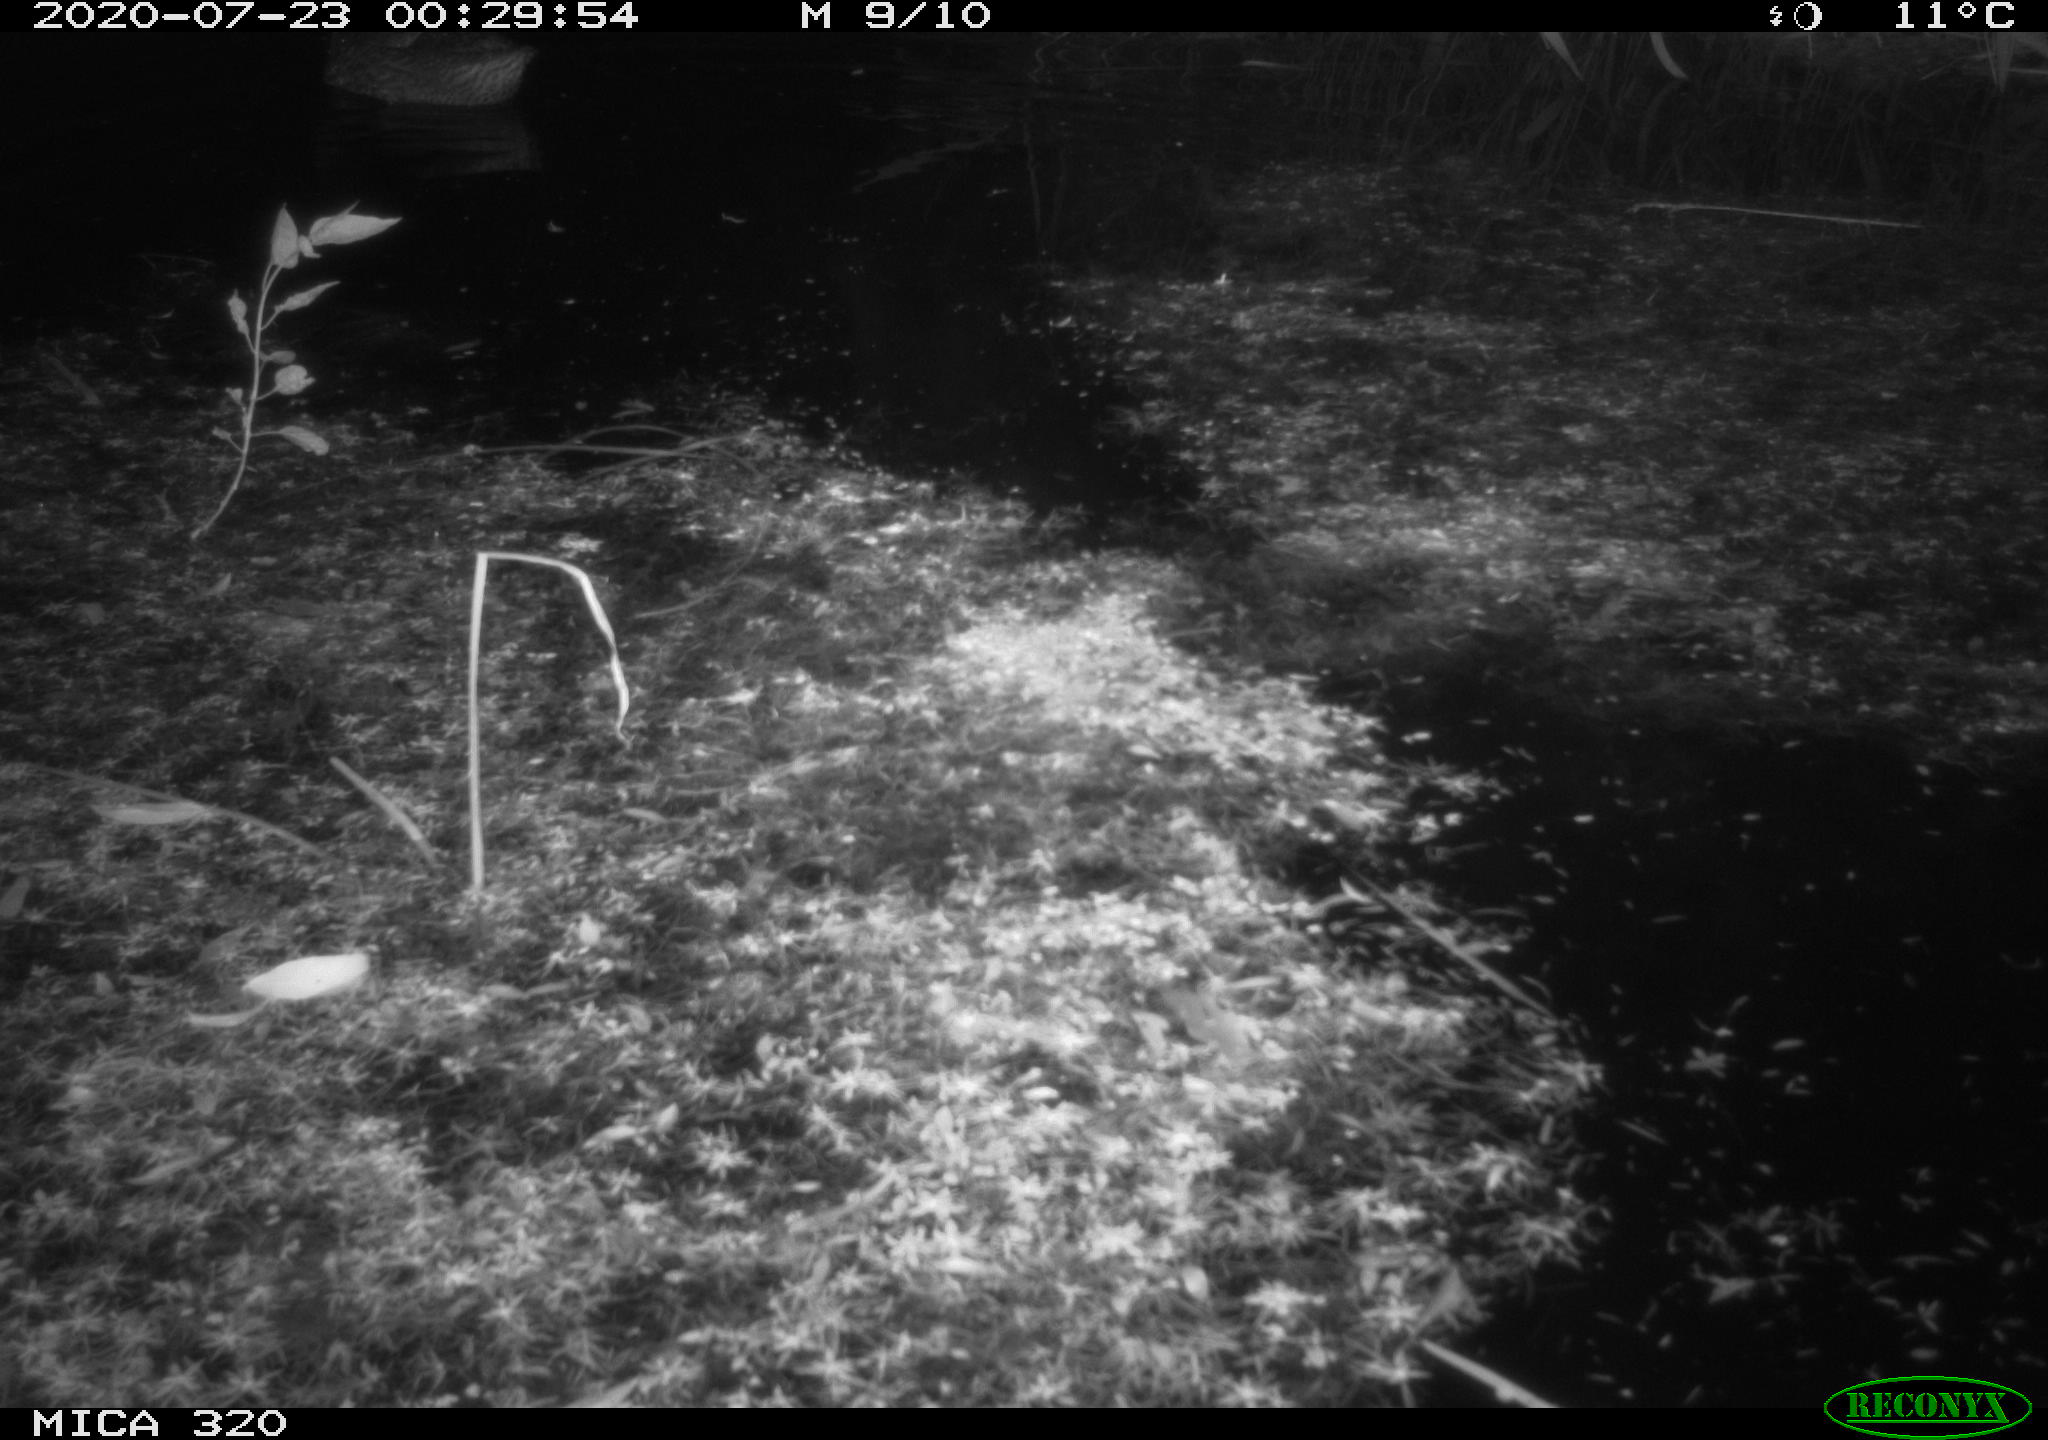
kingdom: Animalia
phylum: Chordata
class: Aves
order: Anseriformes
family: Anatidae
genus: Anas
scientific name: Anas platyrhynchos
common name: Mallard
